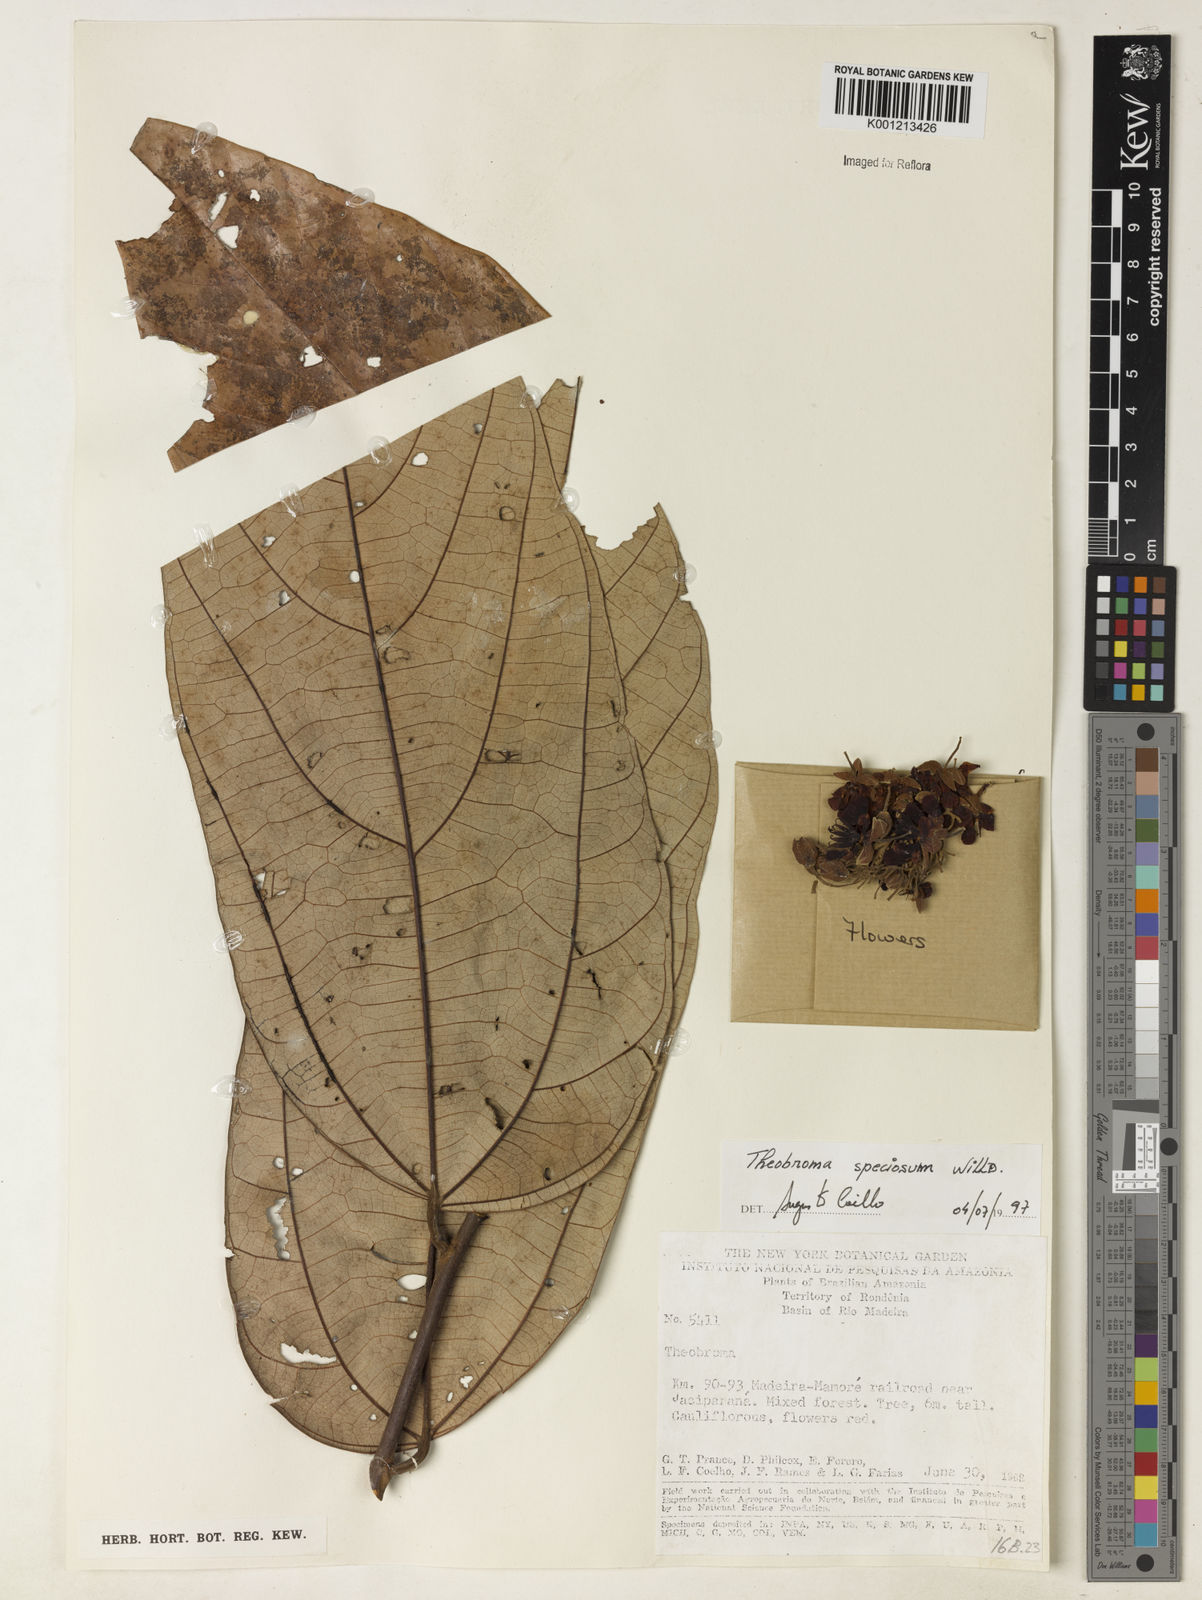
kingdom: Plantae
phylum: Tracheophyta
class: Magnoliopsida
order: Malvales
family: Malvaceae
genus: Theobroma
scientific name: Theobroma speciosum
